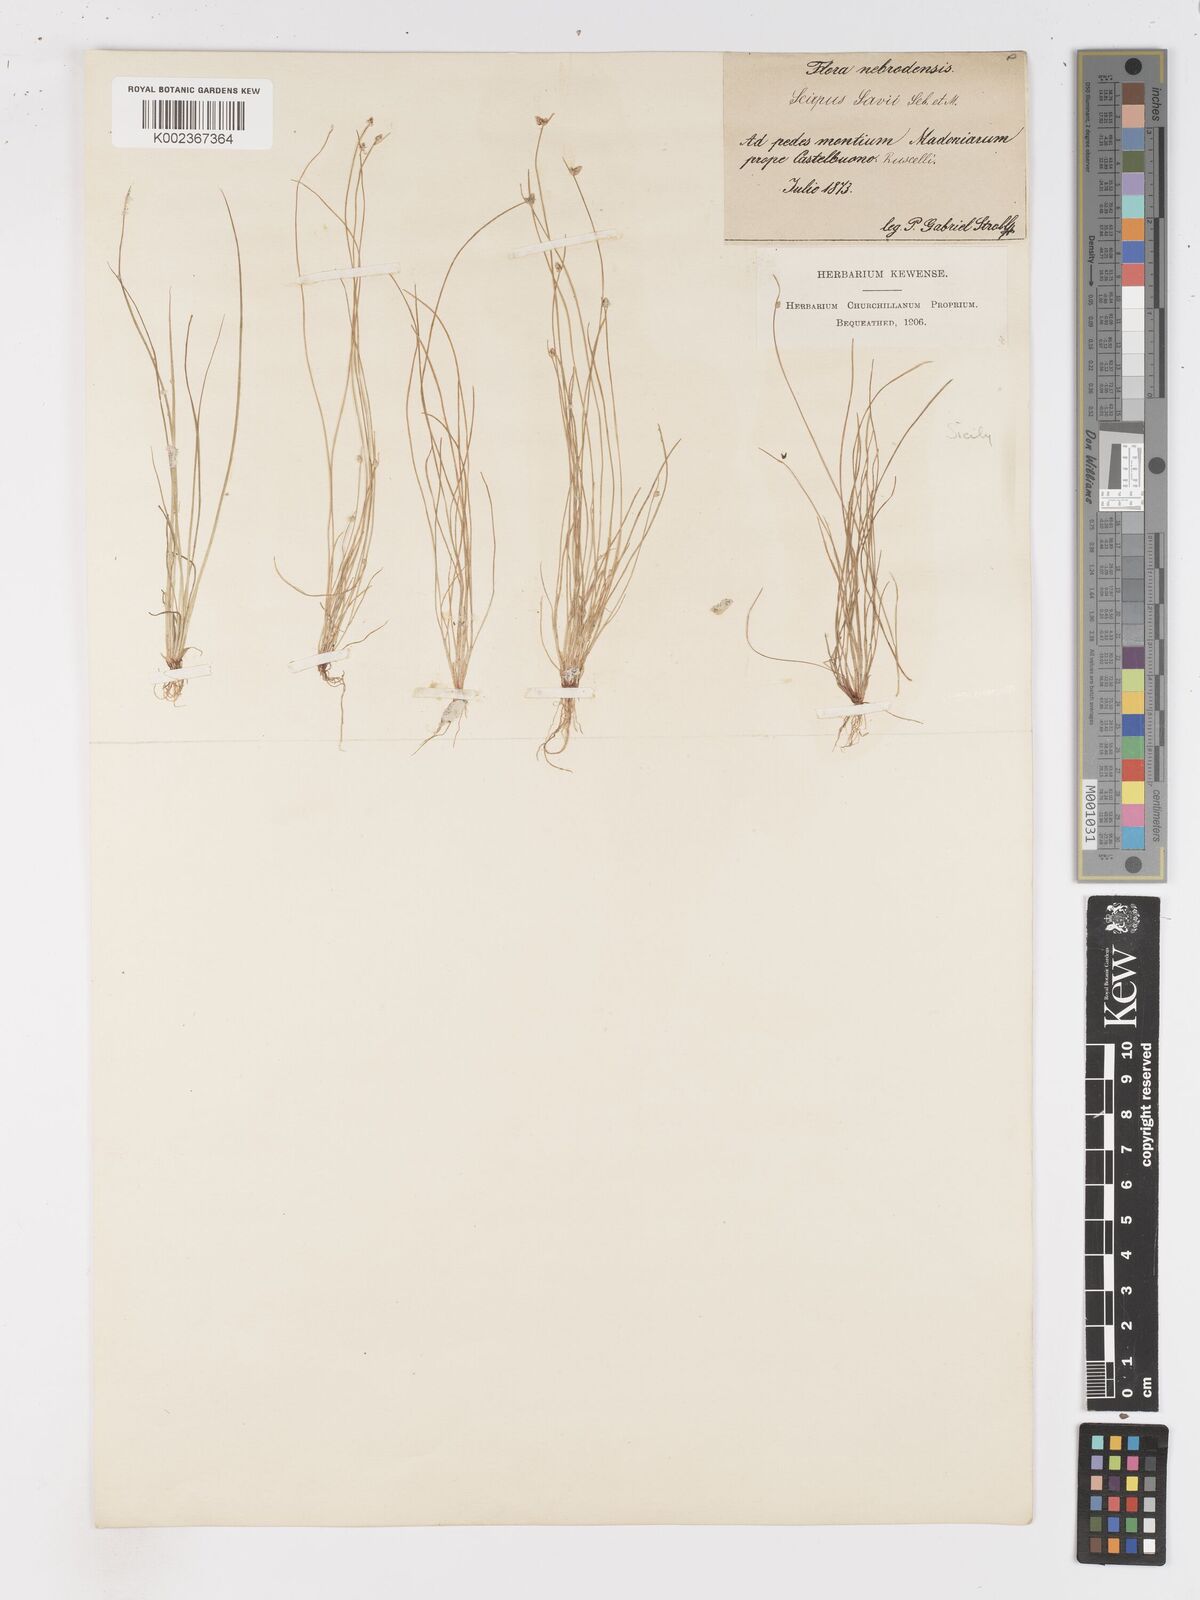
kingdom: Plantae
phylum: Tracheophyta
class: Liliopsida
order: Poales
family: Cyperaceae
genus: Isolepis
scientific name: Isolepis cernua
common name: Slender club-rush
